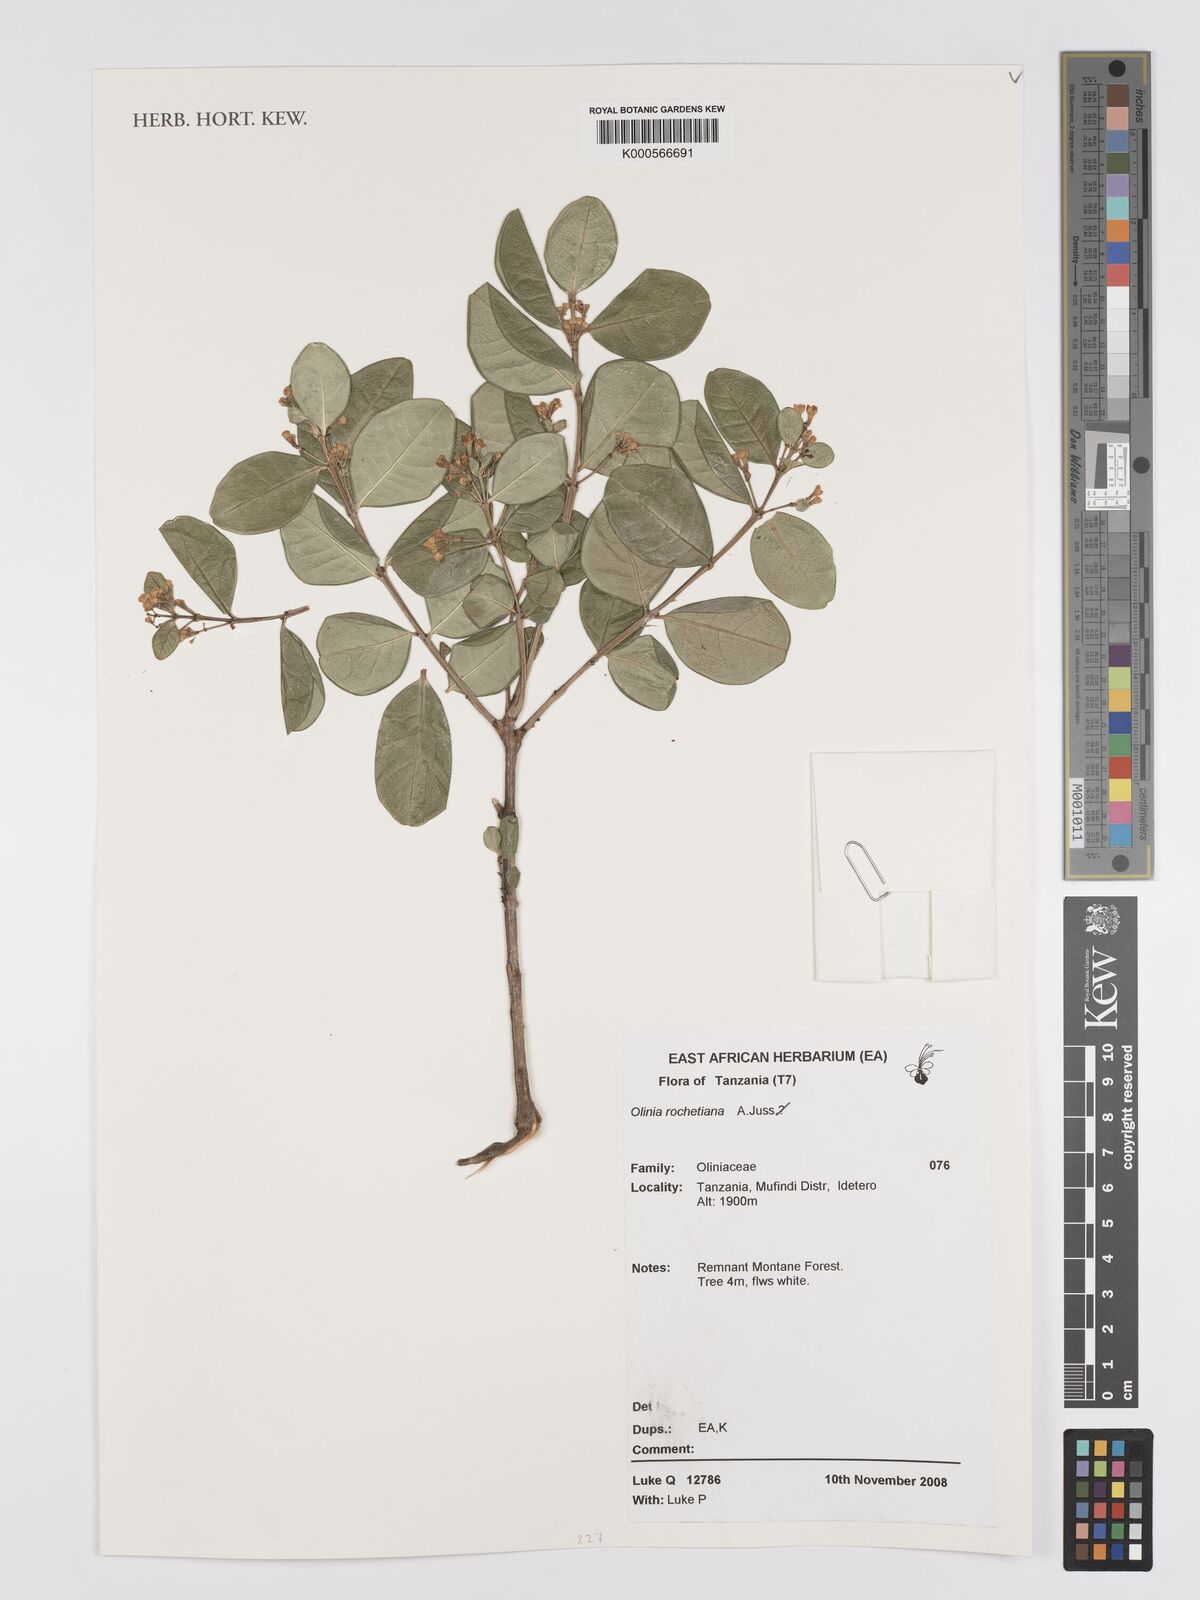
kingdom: Plantae
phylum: Tracheophyta
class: Magnoliopsida
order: Myrtales
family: Penaeaceae
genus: Olinia
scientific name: Olinia rochetiana
